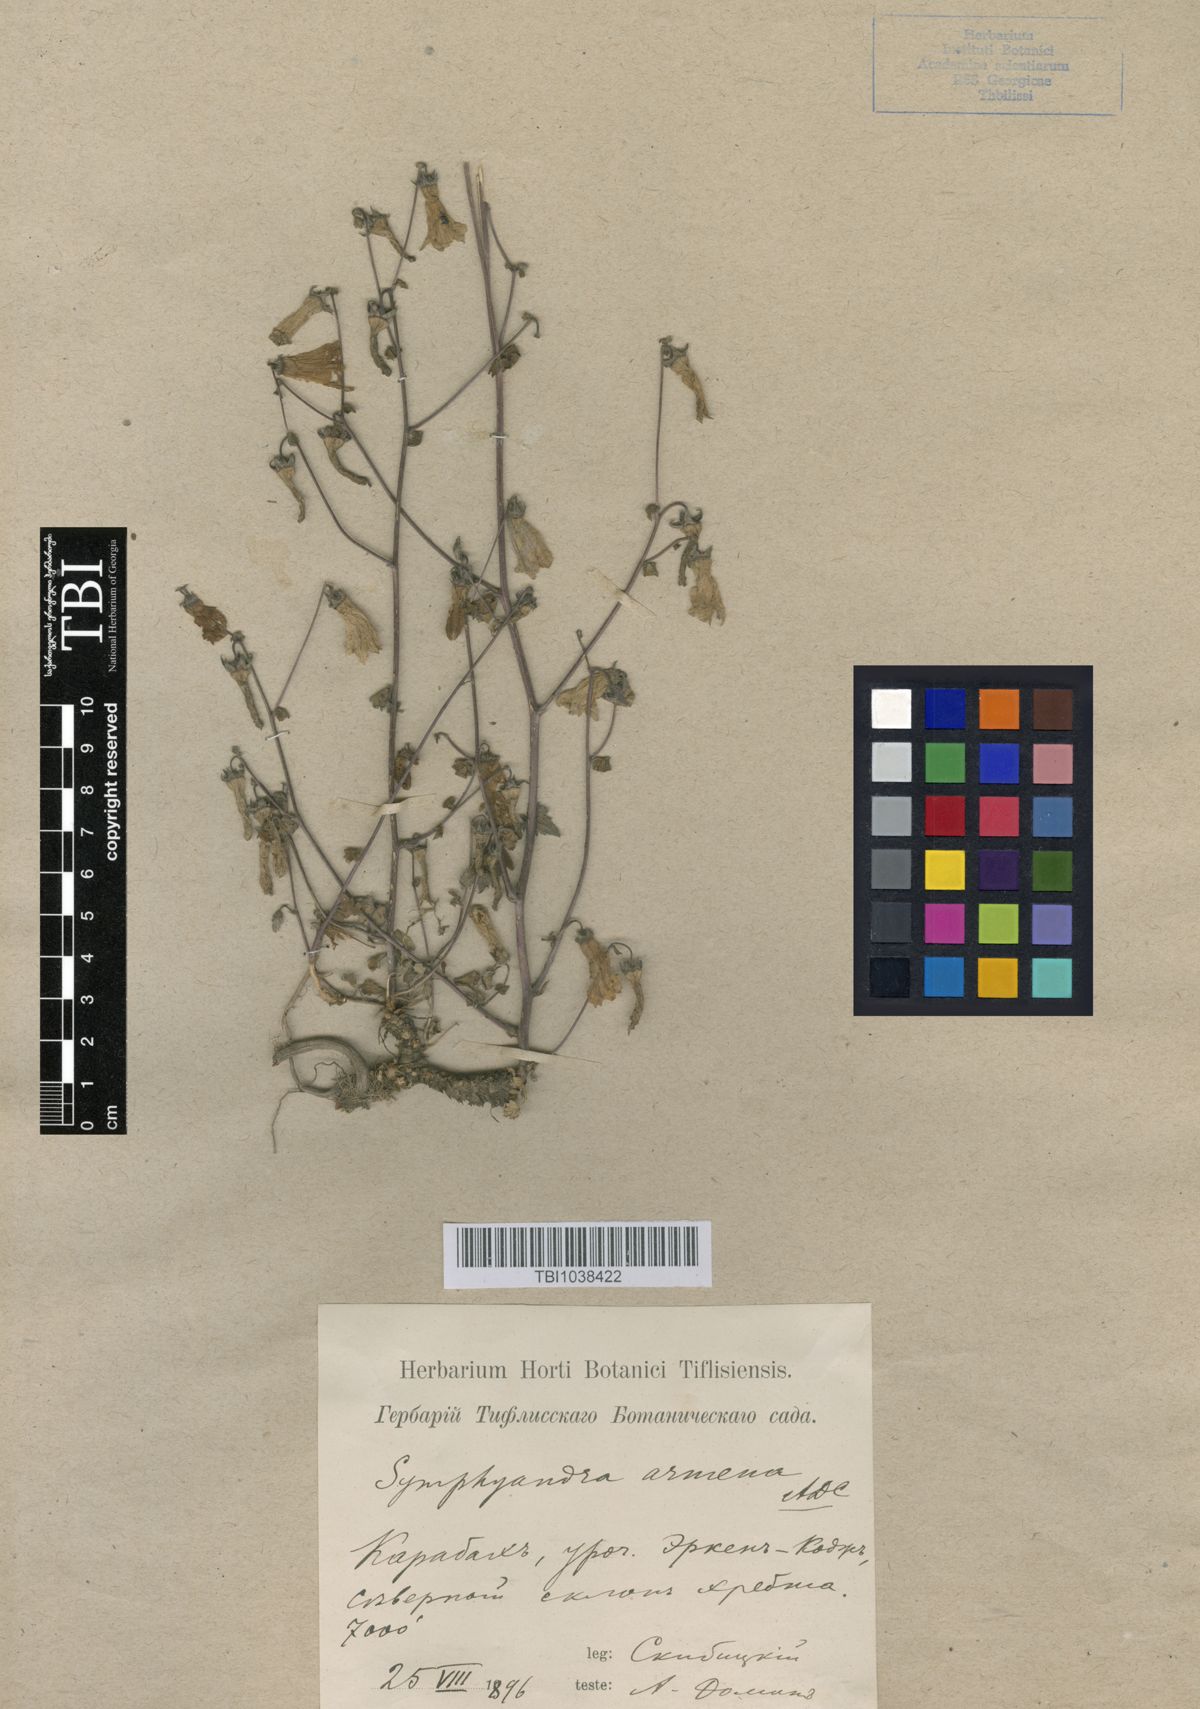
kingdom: Plantae
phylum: Tracheophyta
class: Magnoliopsida
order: Asterales
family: Campanulaceae
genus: Campanula
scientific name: Campanula armena
